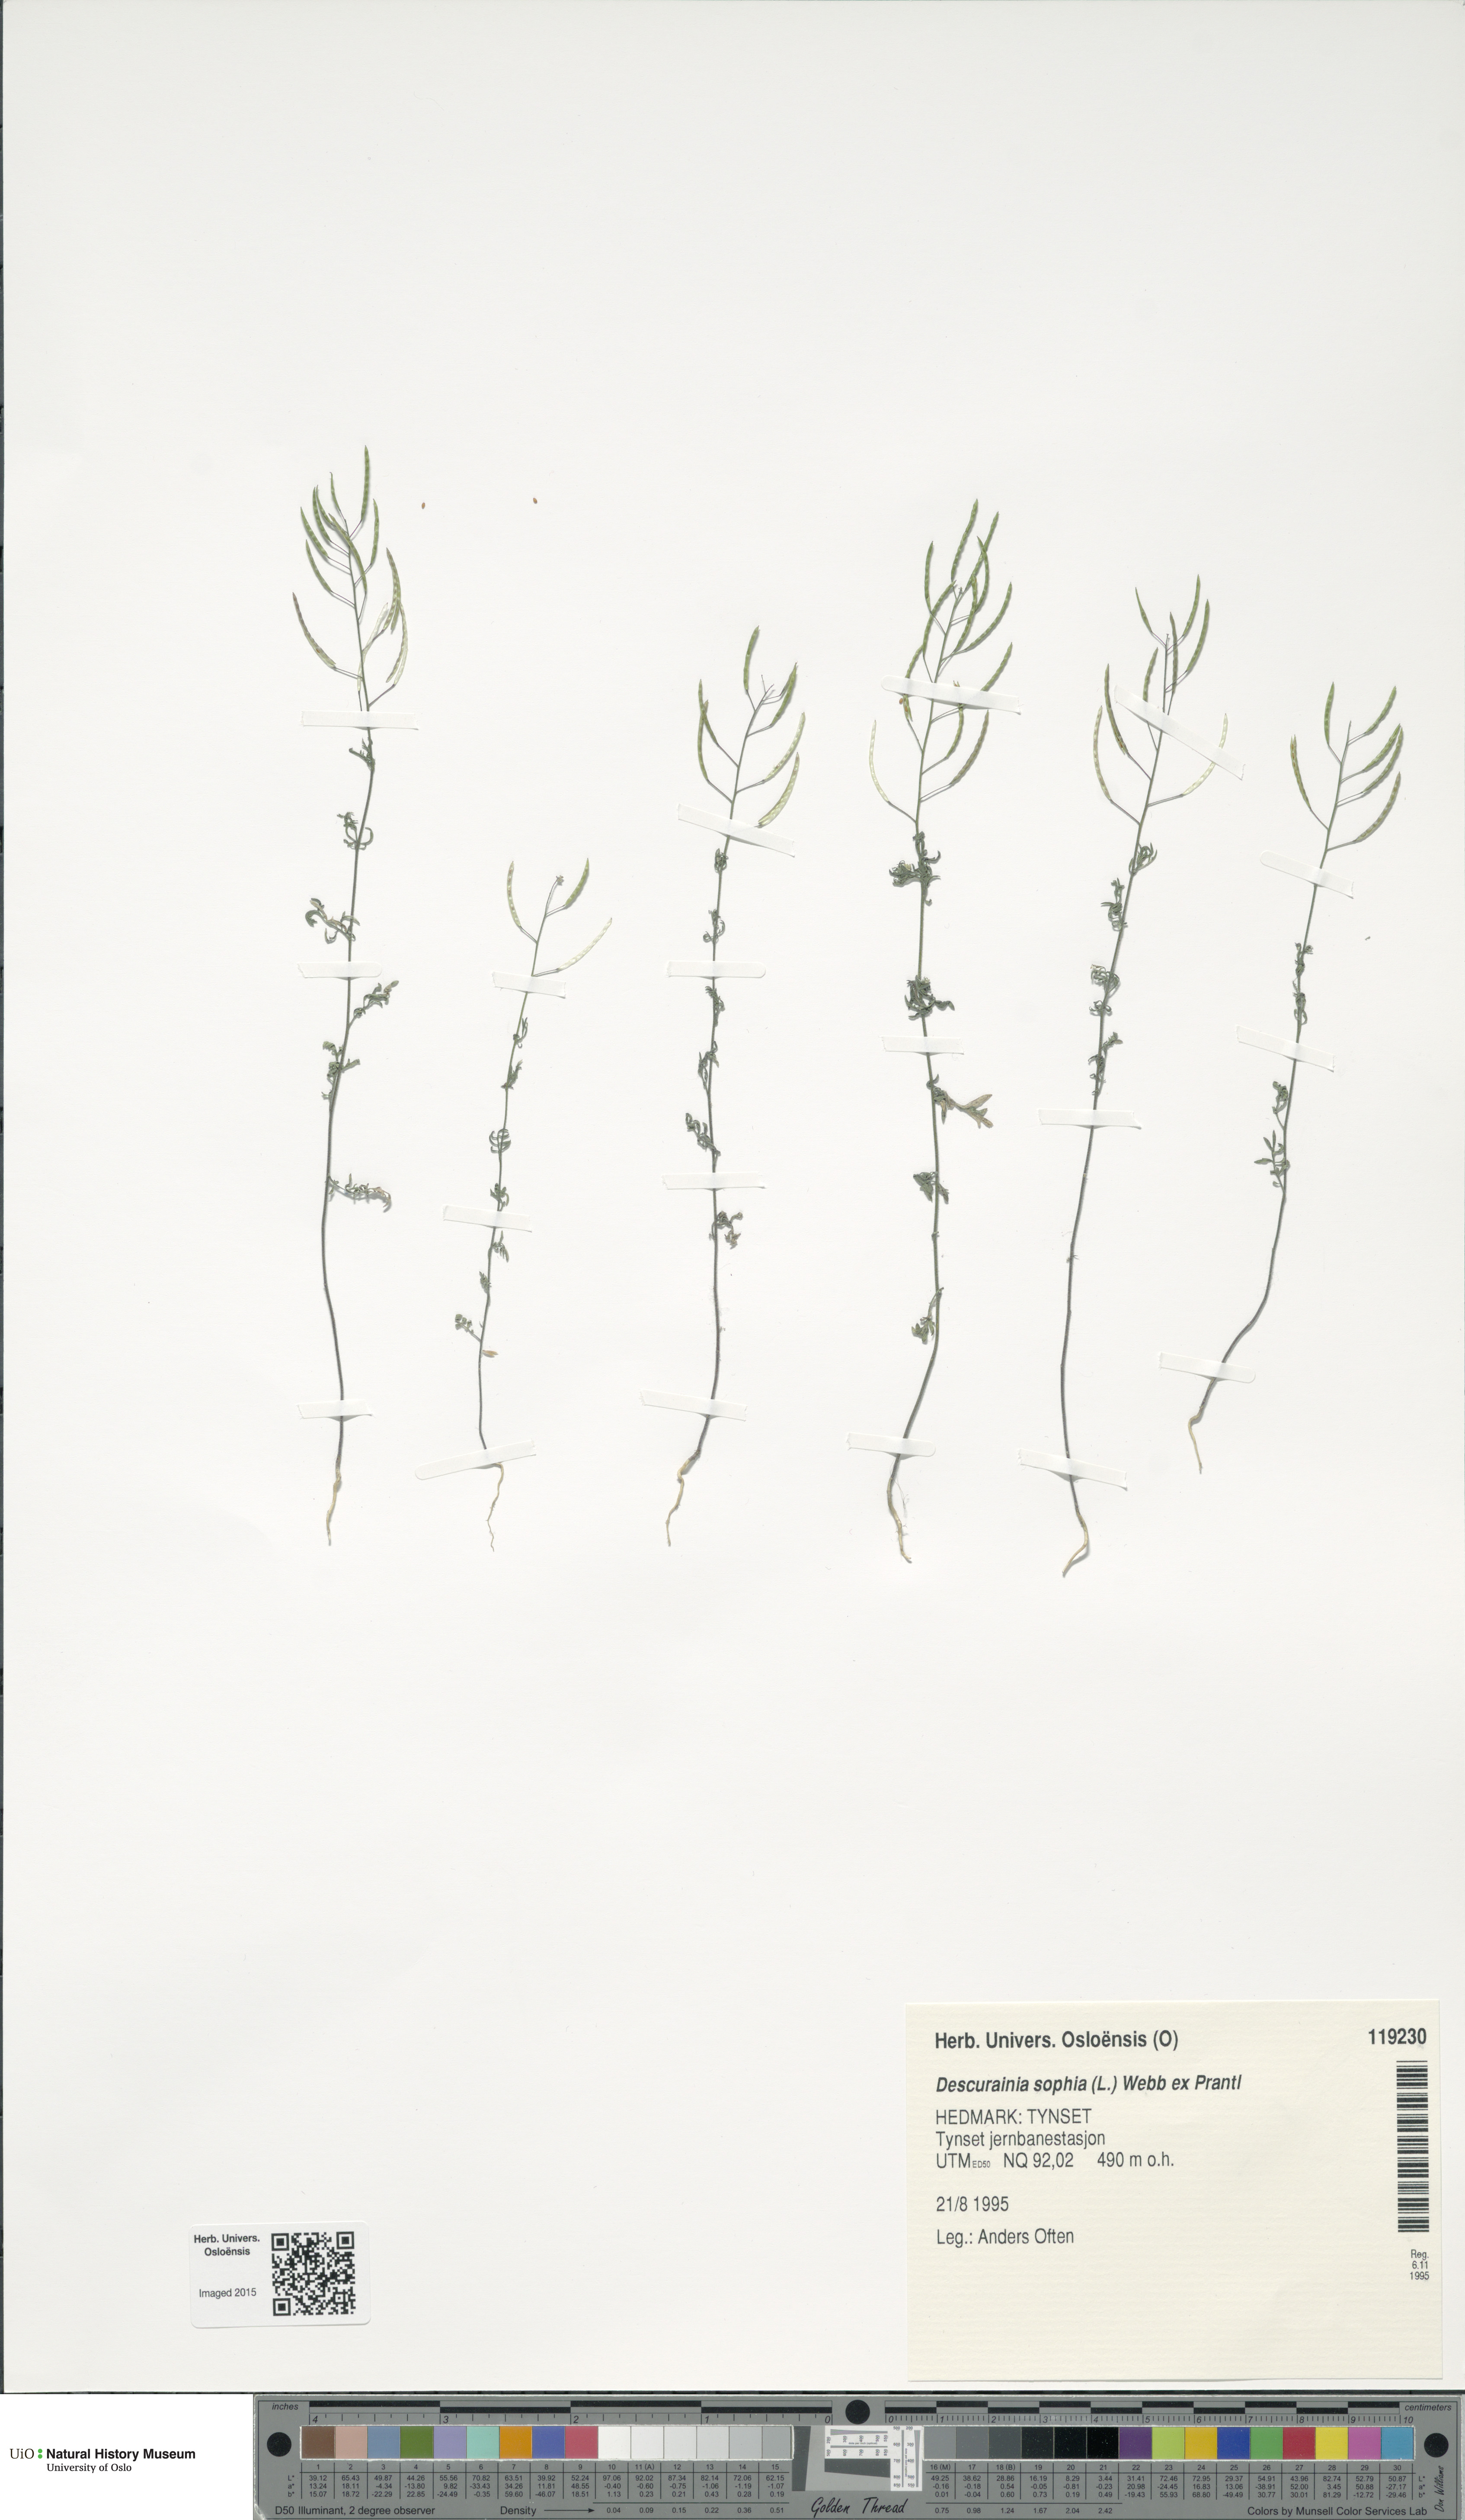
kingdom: Plantae
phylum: Tracheophyta
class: Magnoliopsida
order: Brassicales
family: Brassicaceae
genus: Descurainia
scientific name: Descurainia sophia
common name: Flixweed
